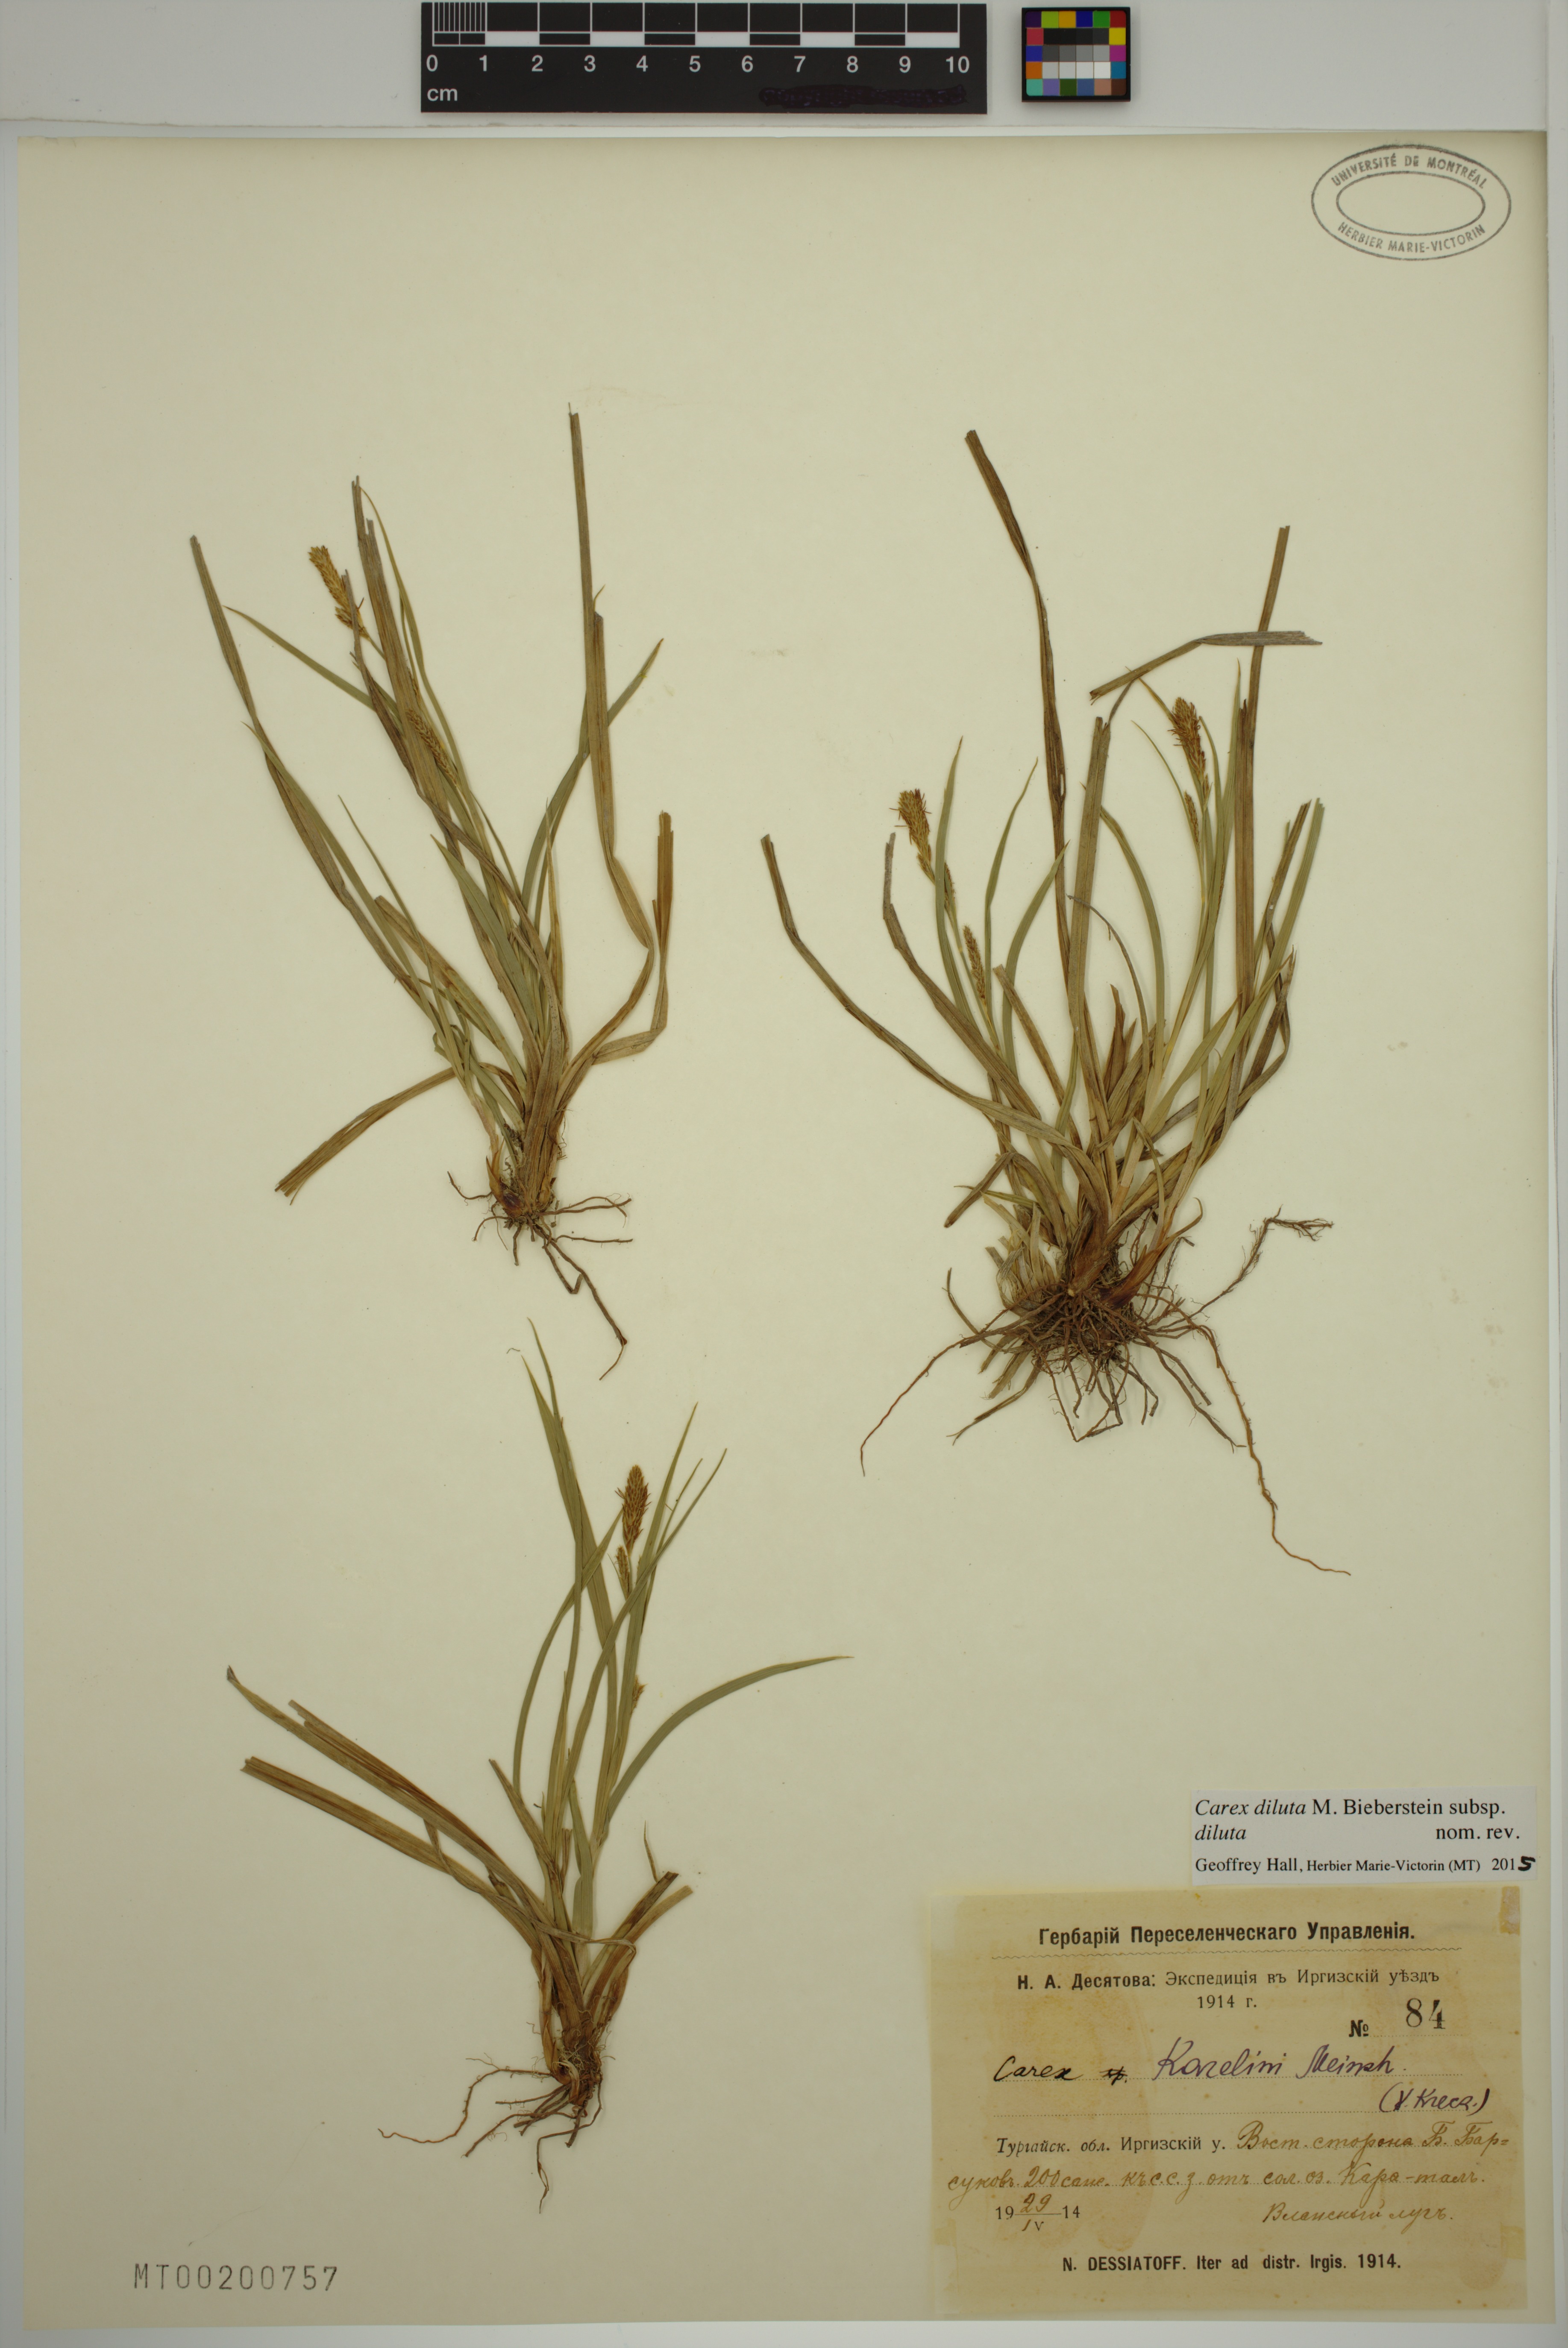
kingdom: Plantae
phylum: Tracheophyta
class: Liliopsida
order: Poales
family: Cyperaceae
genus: Carex
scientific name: Carex diluta
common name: Sedge
